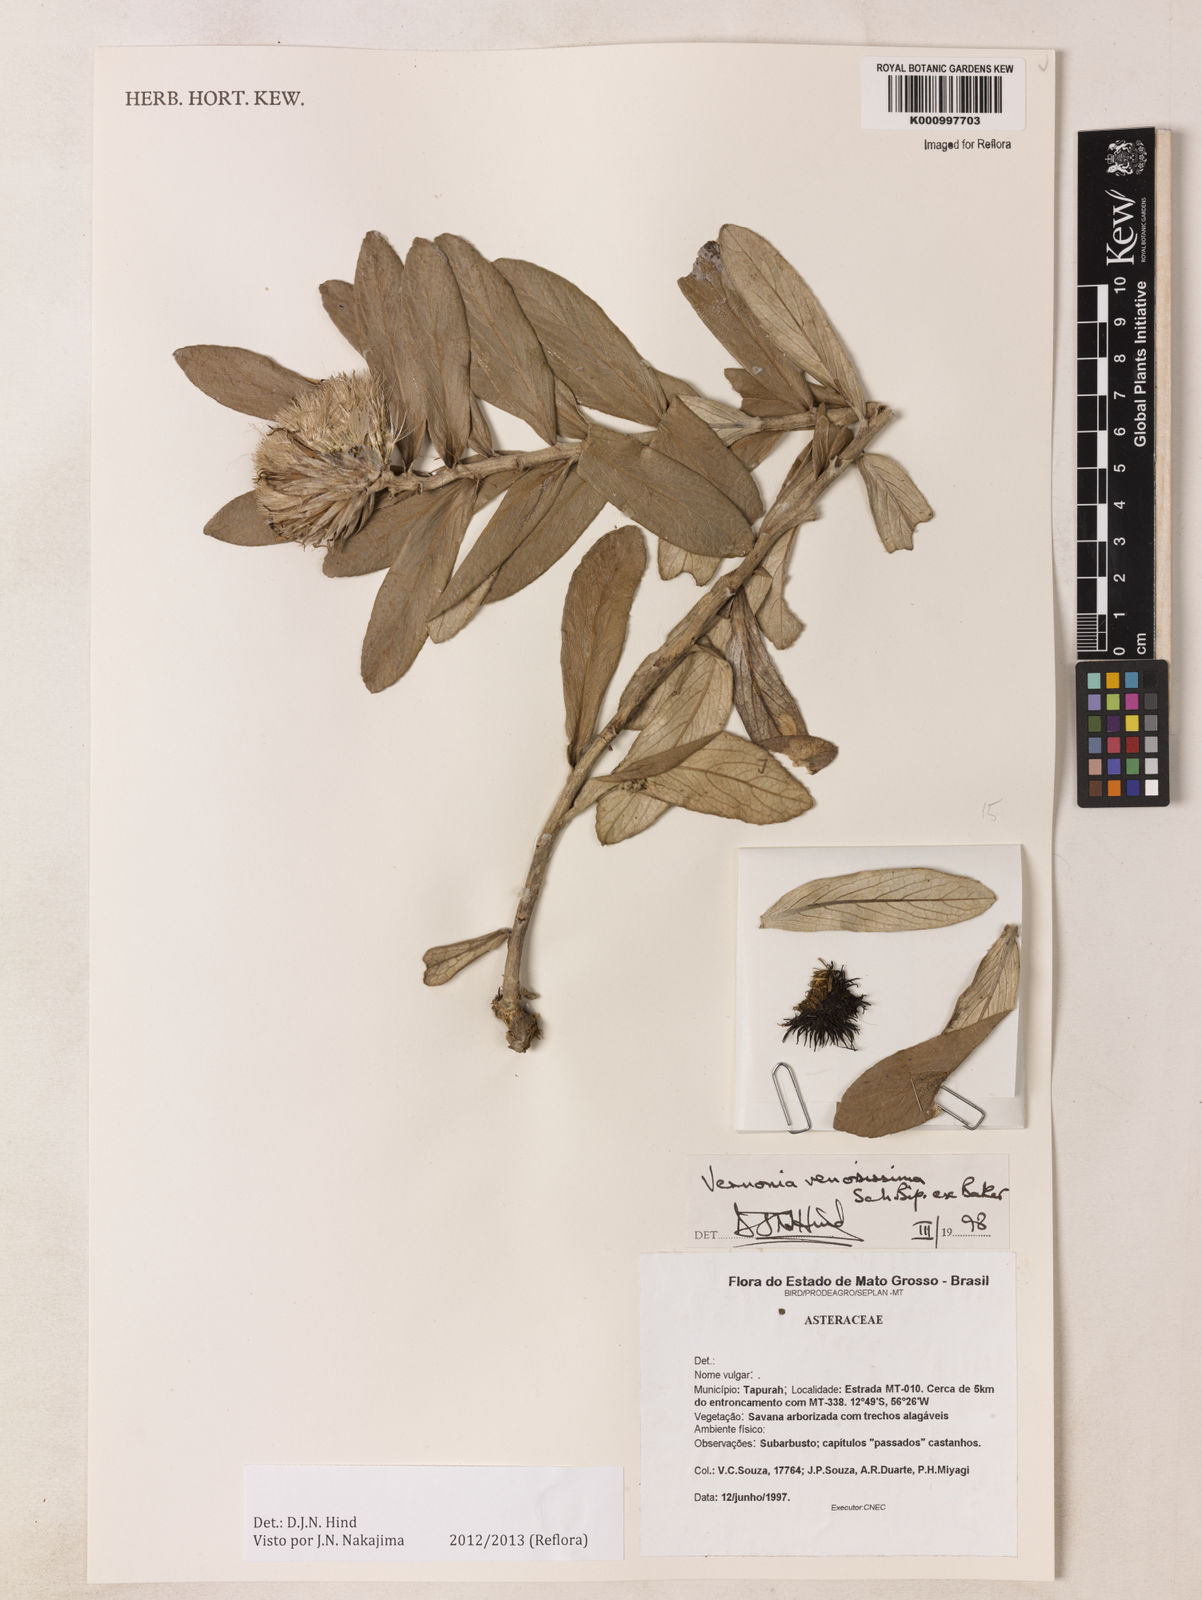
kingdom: Plantae
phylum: Tracheophyta
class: Magnoliopsida
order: Asterales
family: Asteraceae
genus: Lessingianthus
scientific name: Lessingianthus venosissimus
